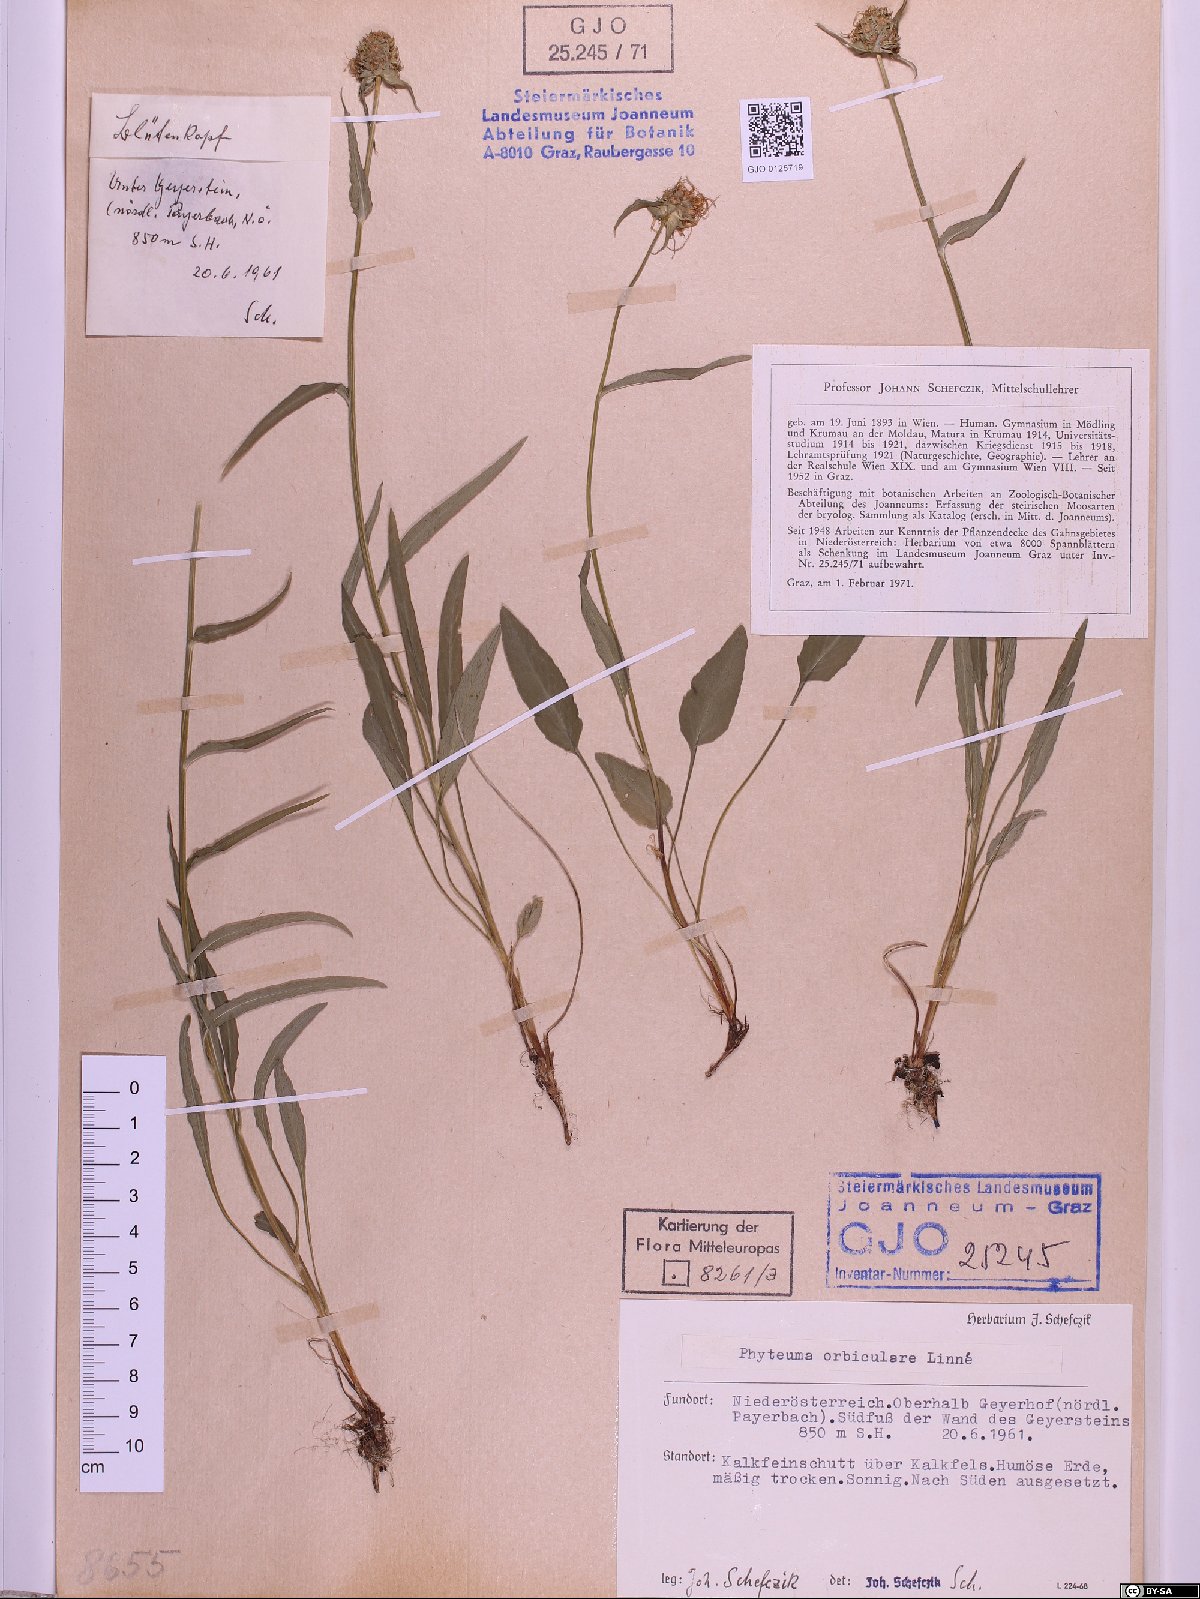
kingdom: Plantae
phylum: Tracheophyta
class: Magnoliopsida
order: Asterales
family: Campanulaceae
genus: Phyteuma
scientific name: Phyteuma orbiculare
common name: Round-headed rampion
